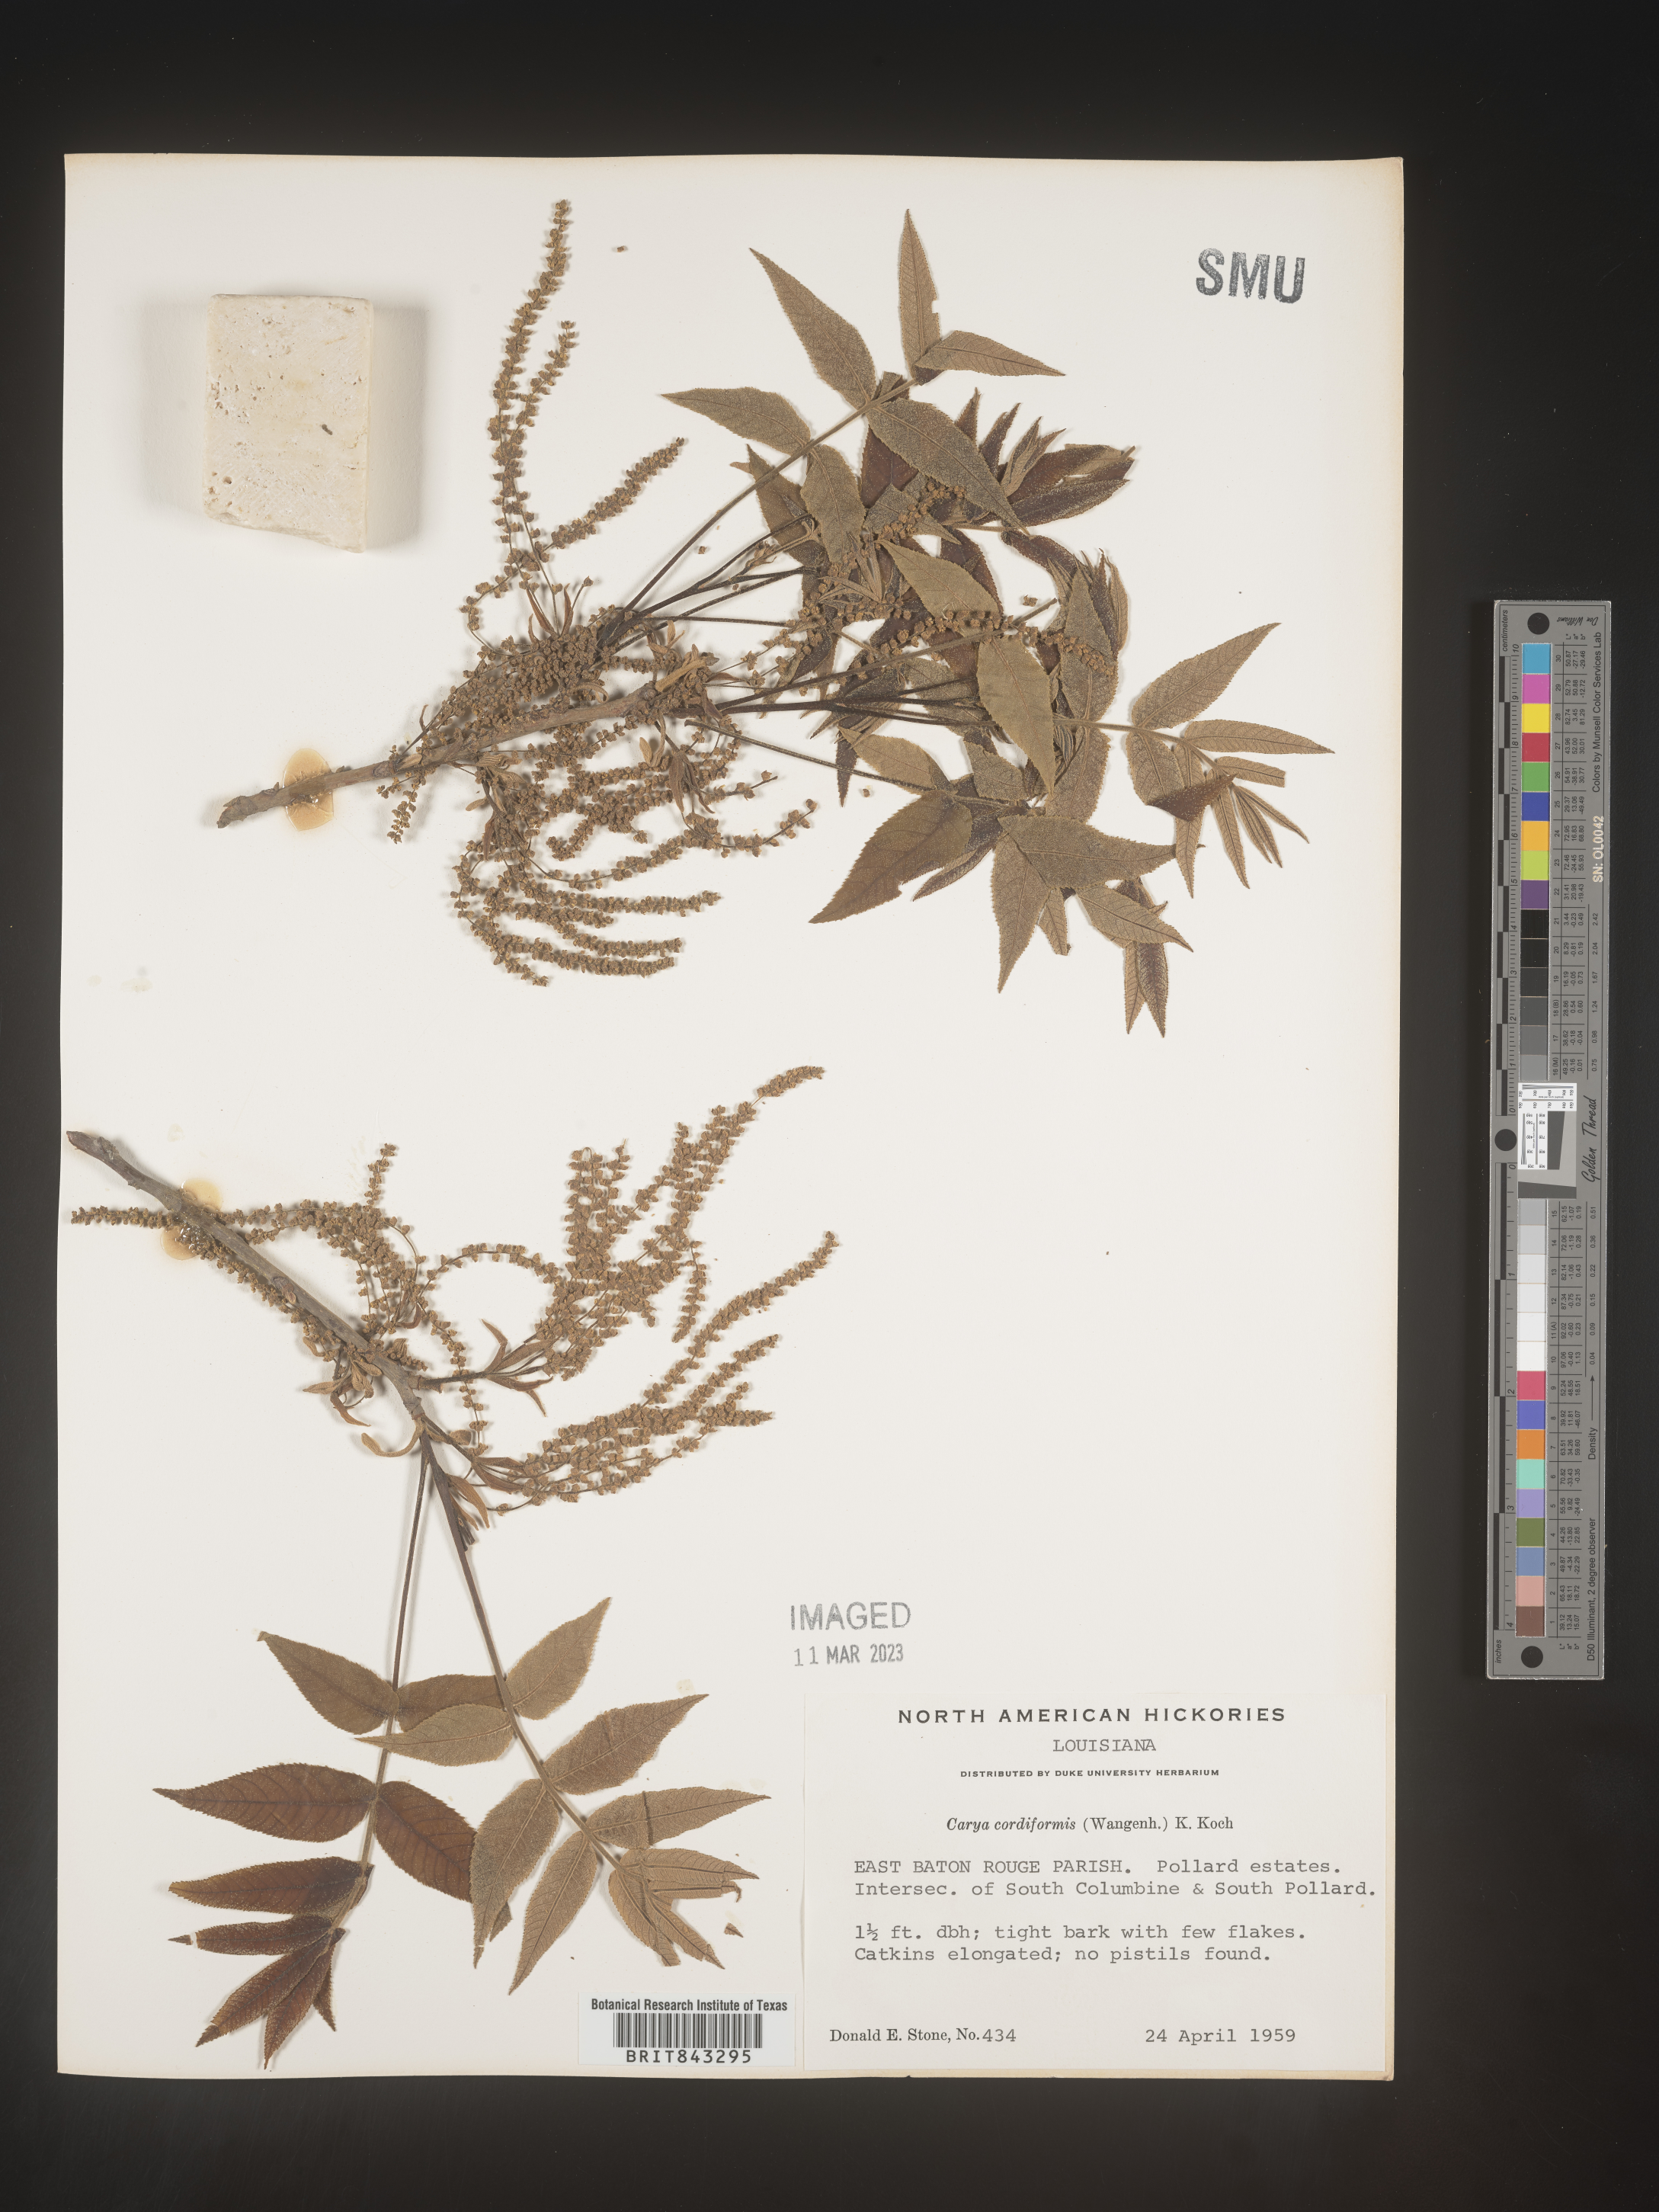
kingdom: Plantae
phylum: Tracheophyta
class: Magnoliopsida
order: Fagales
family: Juglandaceae
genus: Carya
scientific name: Carya cordiformis
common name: Bitternut hickory
